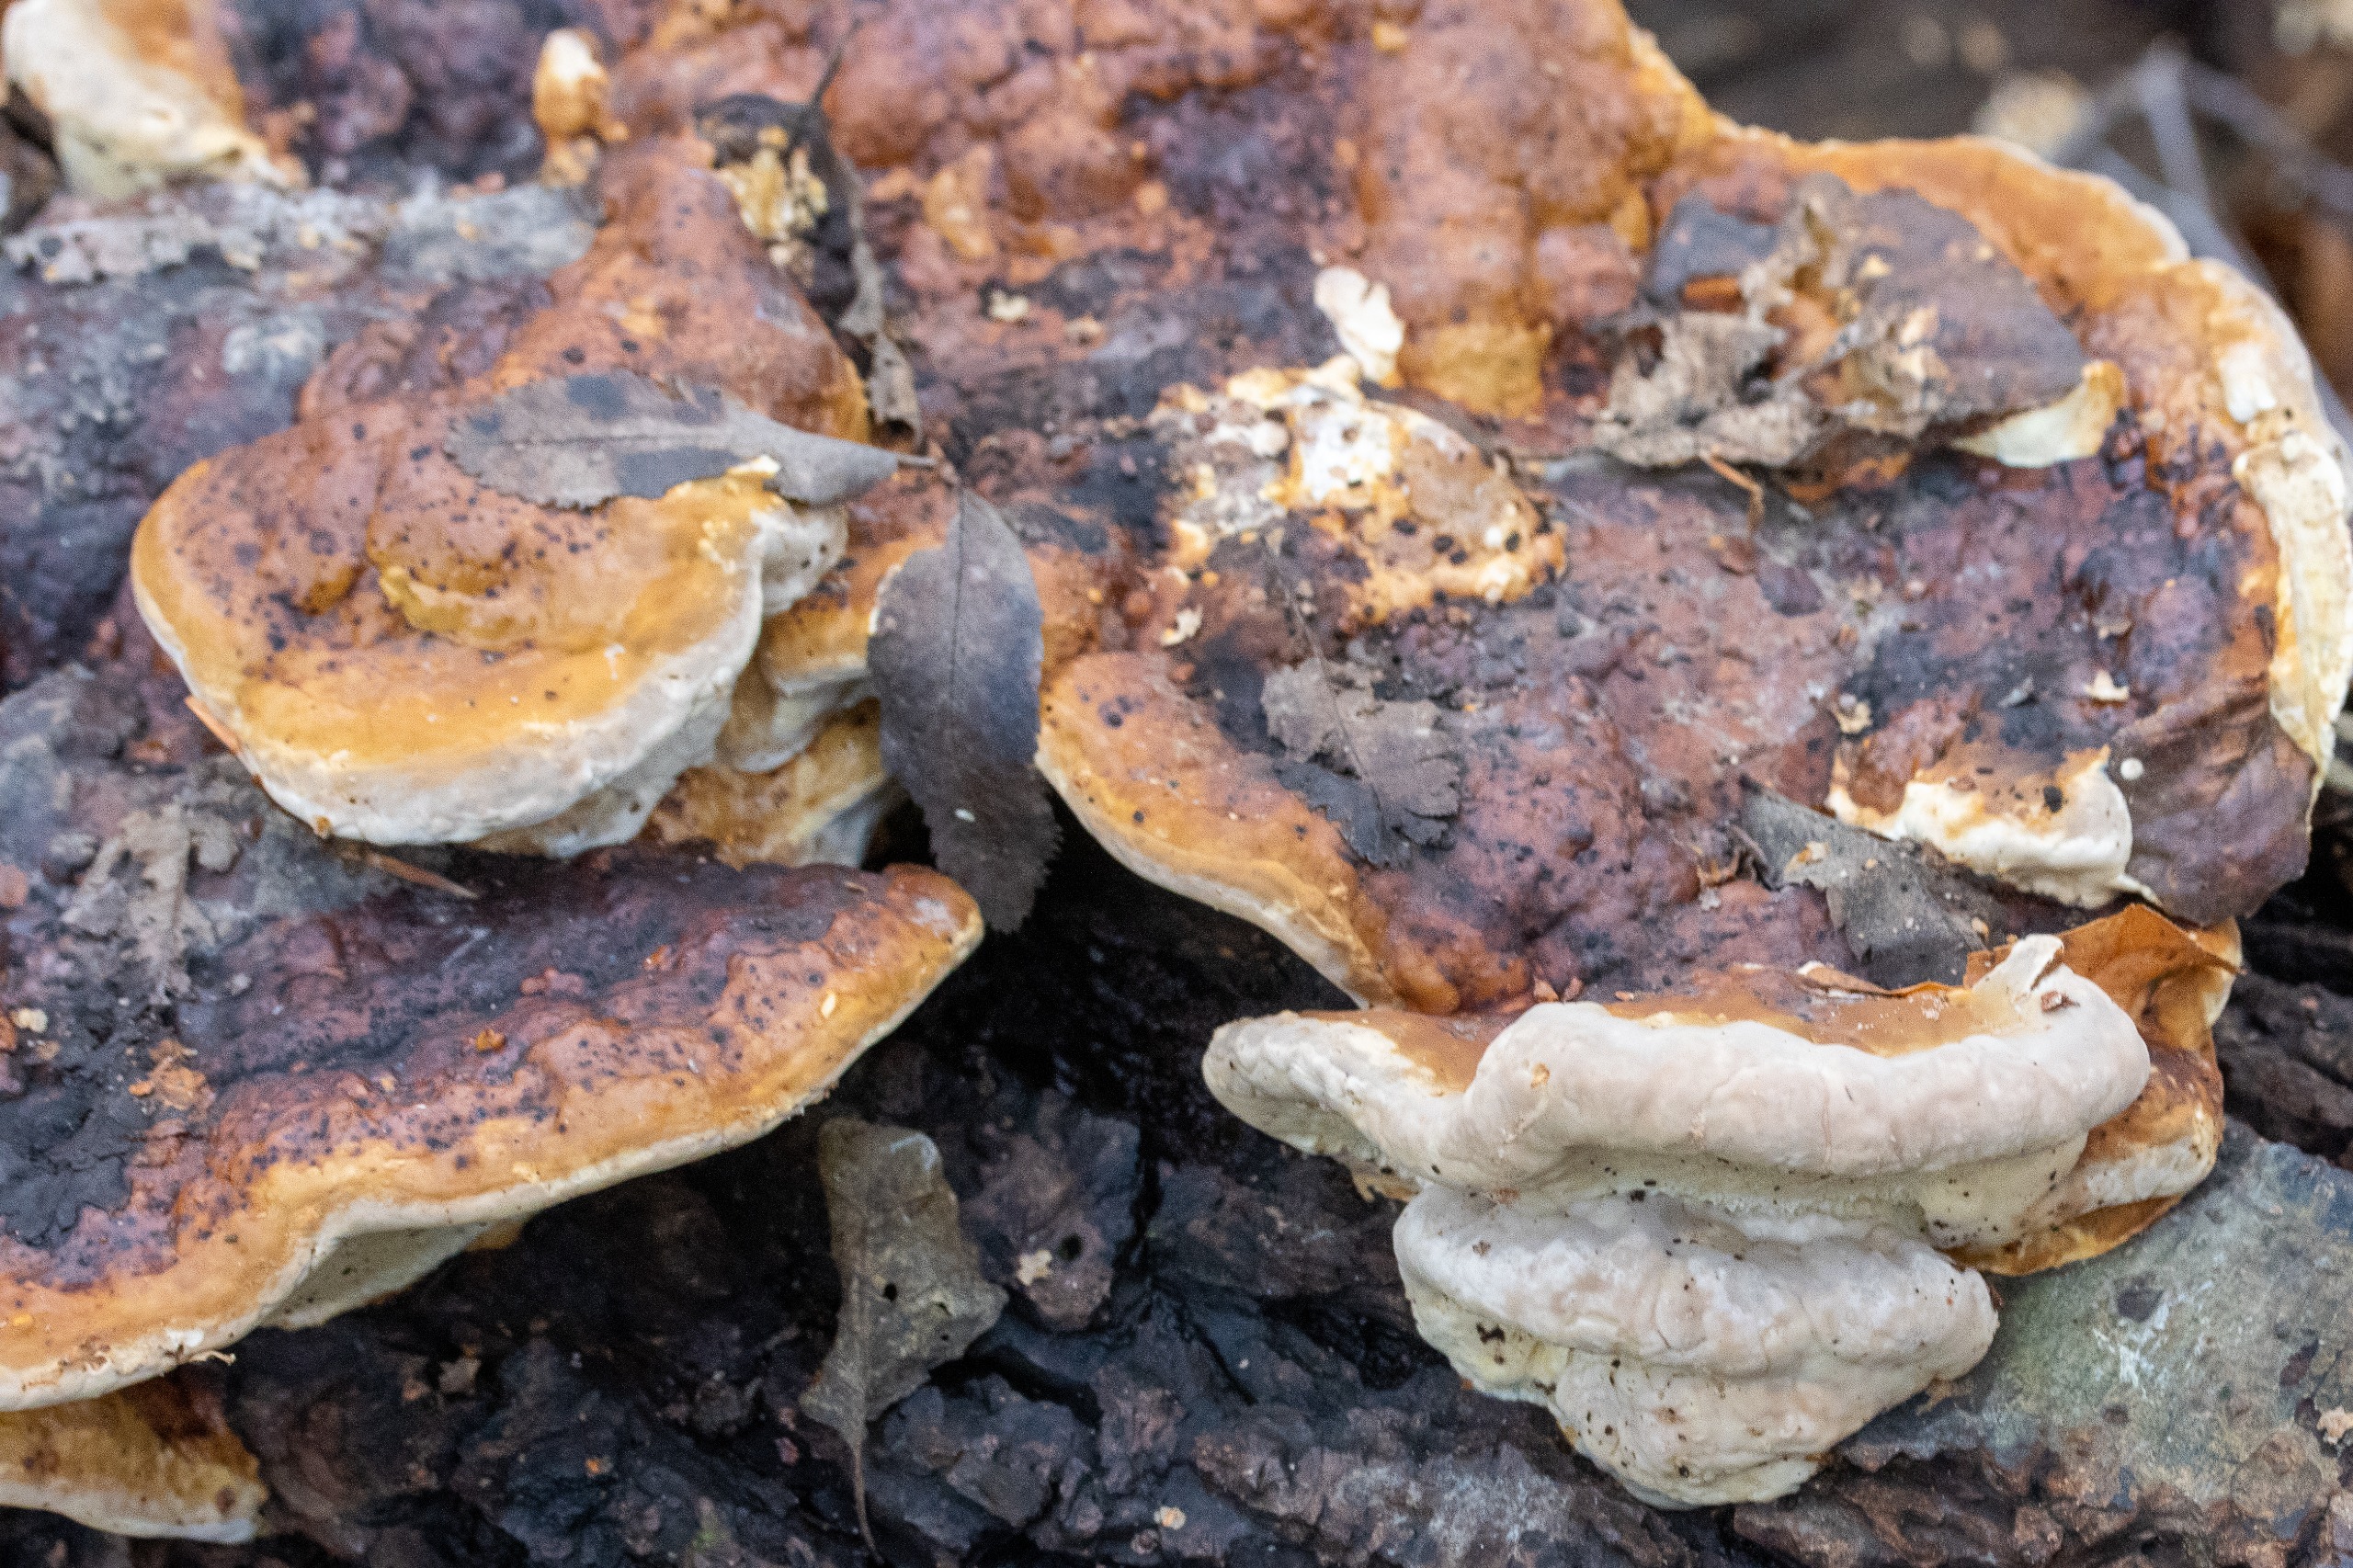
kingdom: Fungi
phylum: Basidiomycota
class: Agaricomycetes
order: Polyporales
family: Fomitopsidaceae
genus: Fomitopsis
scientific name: Fomitopsis pinicola
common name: Randbæltet hovporesvamp
